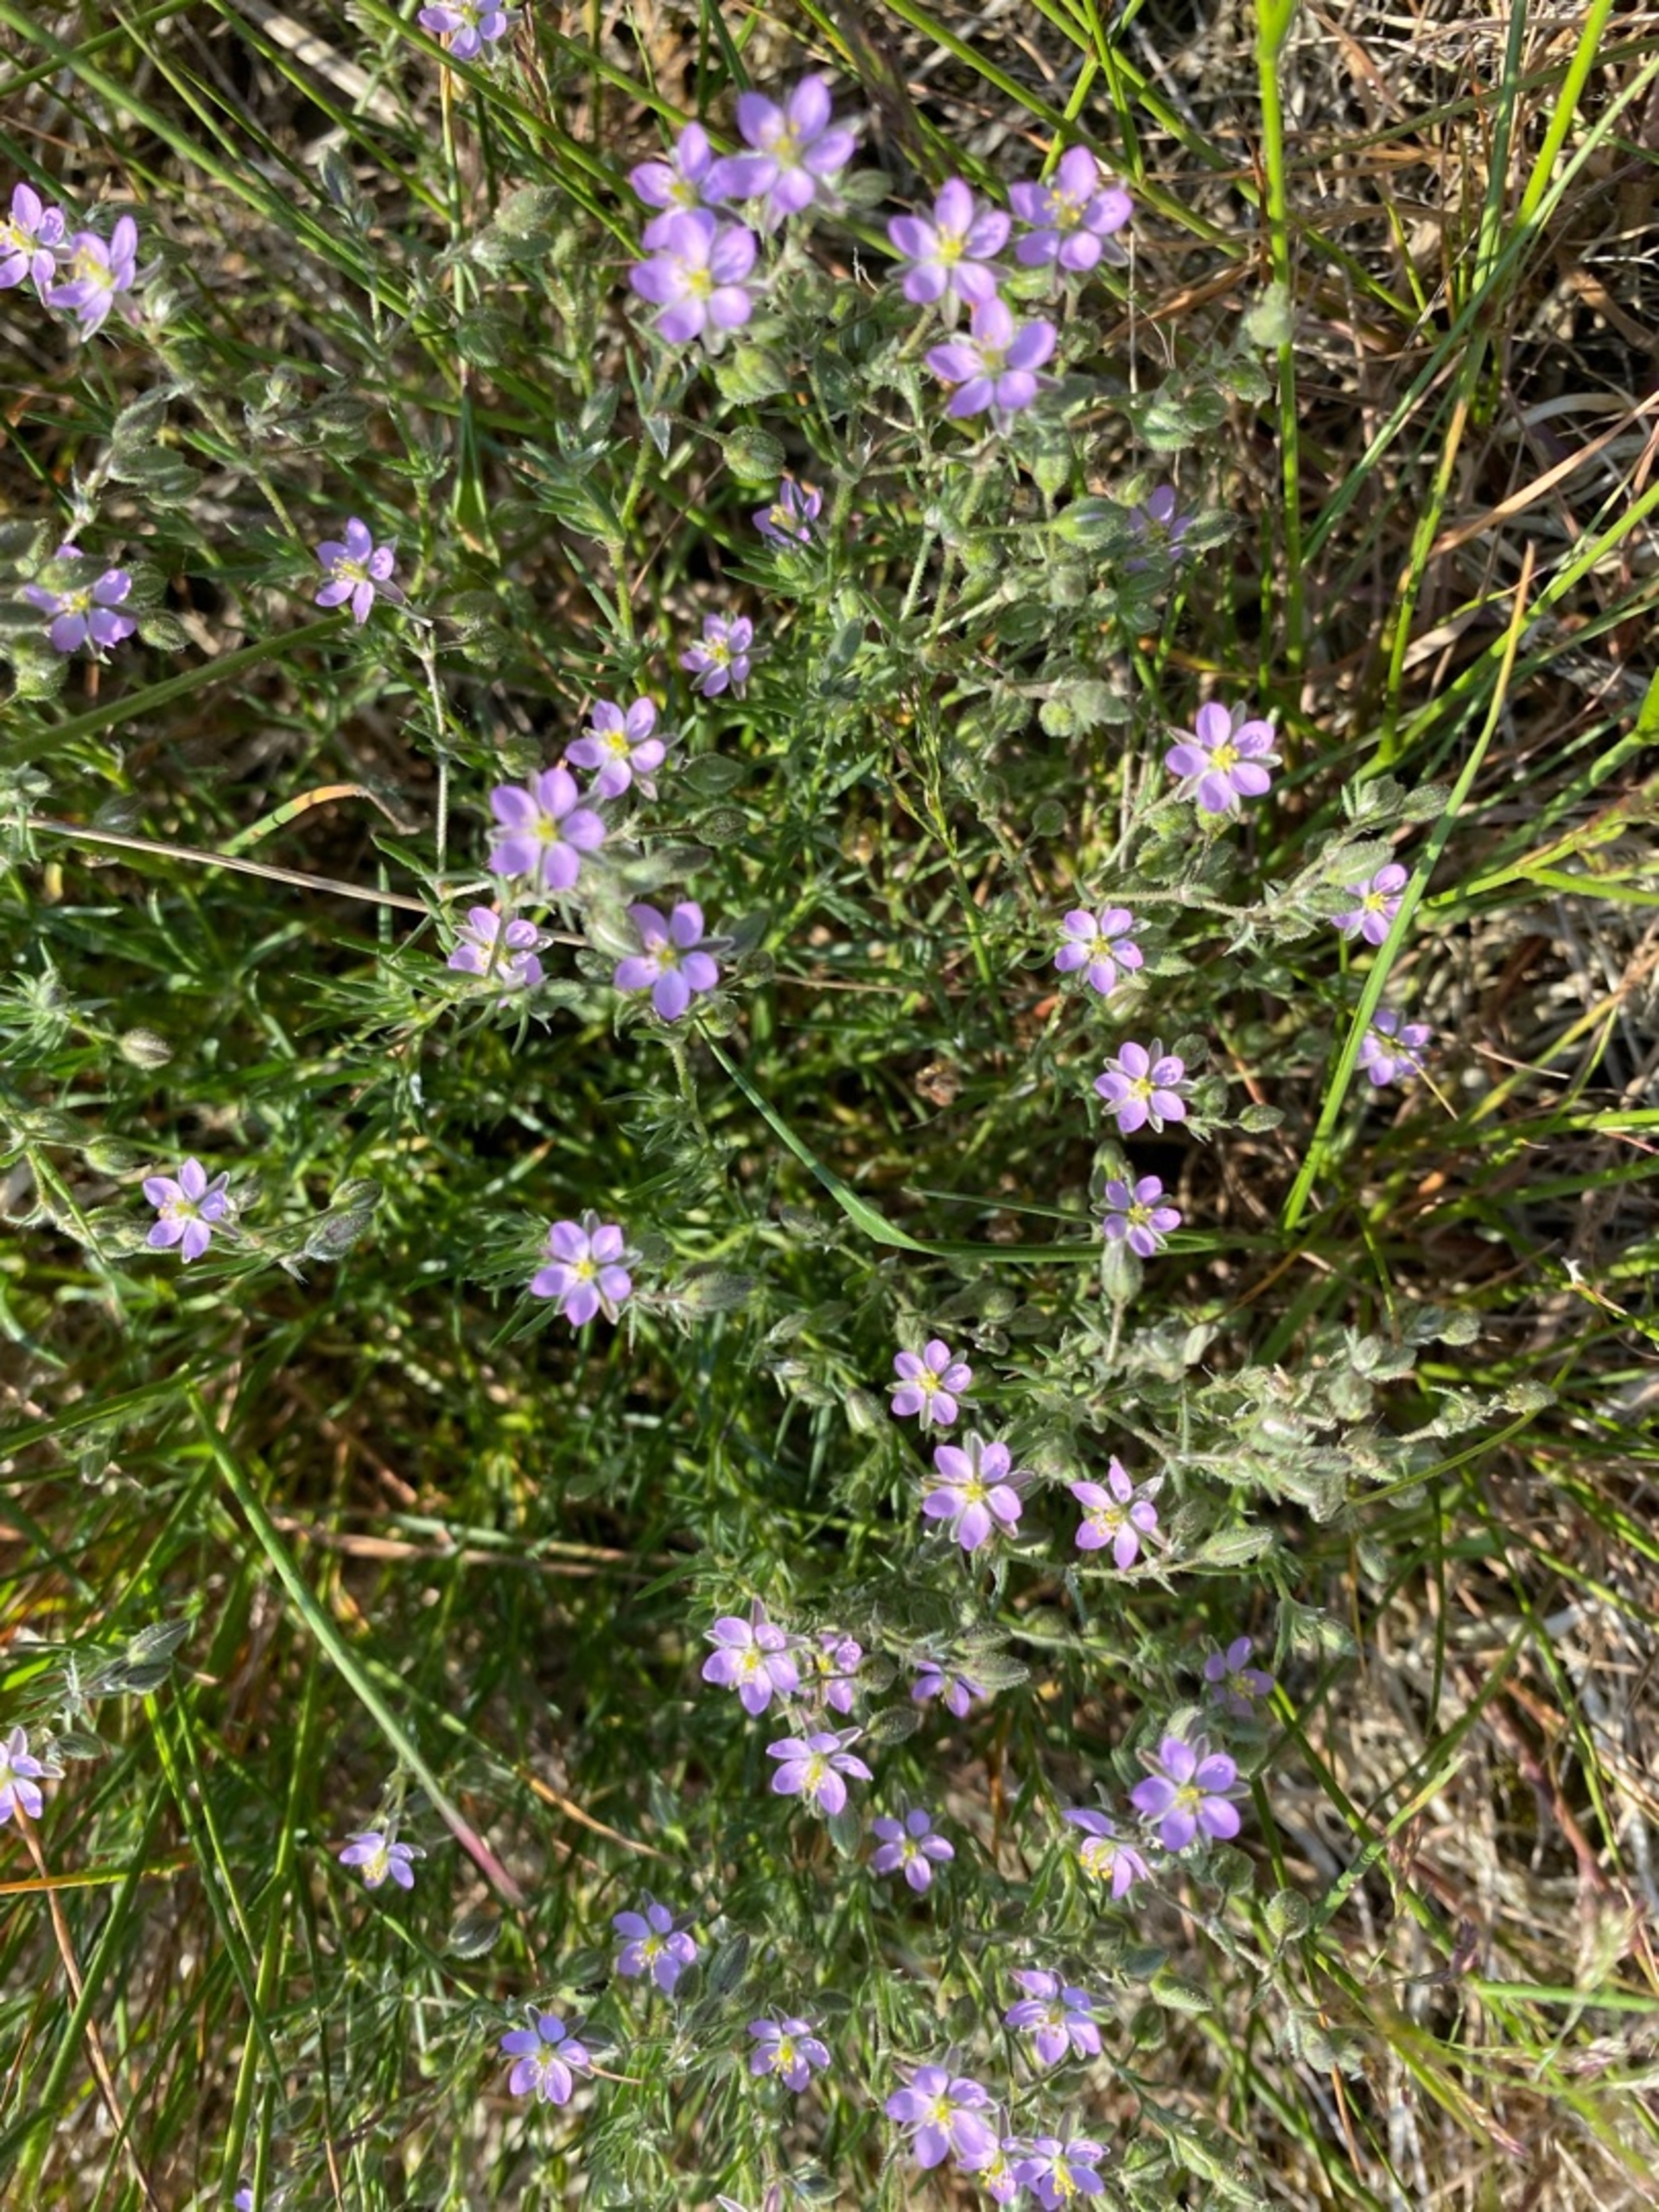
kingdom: Plantae
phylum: Tracheophyta
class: Magnoliopsida
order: Caryophyllales
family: Caryophyllaceae
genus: Spergularia
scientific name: Spergularia rubra
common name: Mark-hindeknæ
